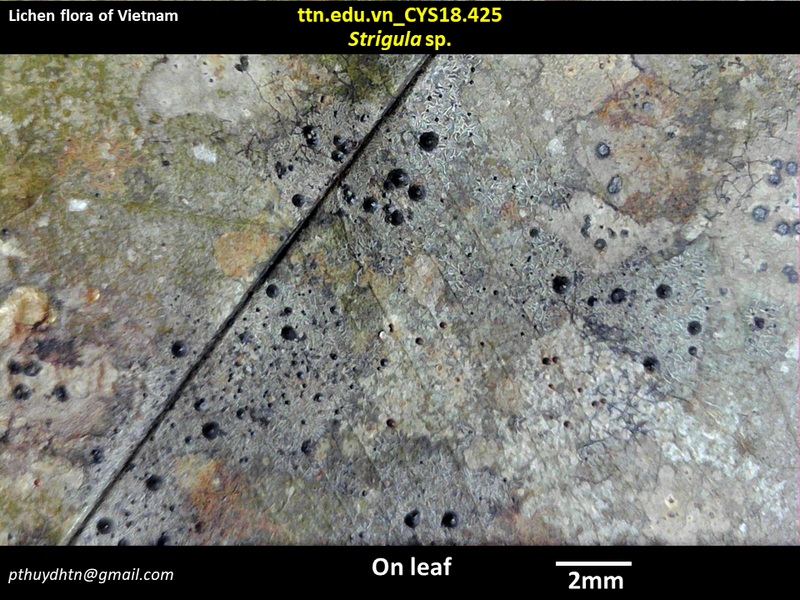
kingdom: Fungi
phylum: Ascomycota
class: Dothideomycetes
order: Strigulales
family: Strigulaceae
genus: Strigula
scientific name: Strigula
